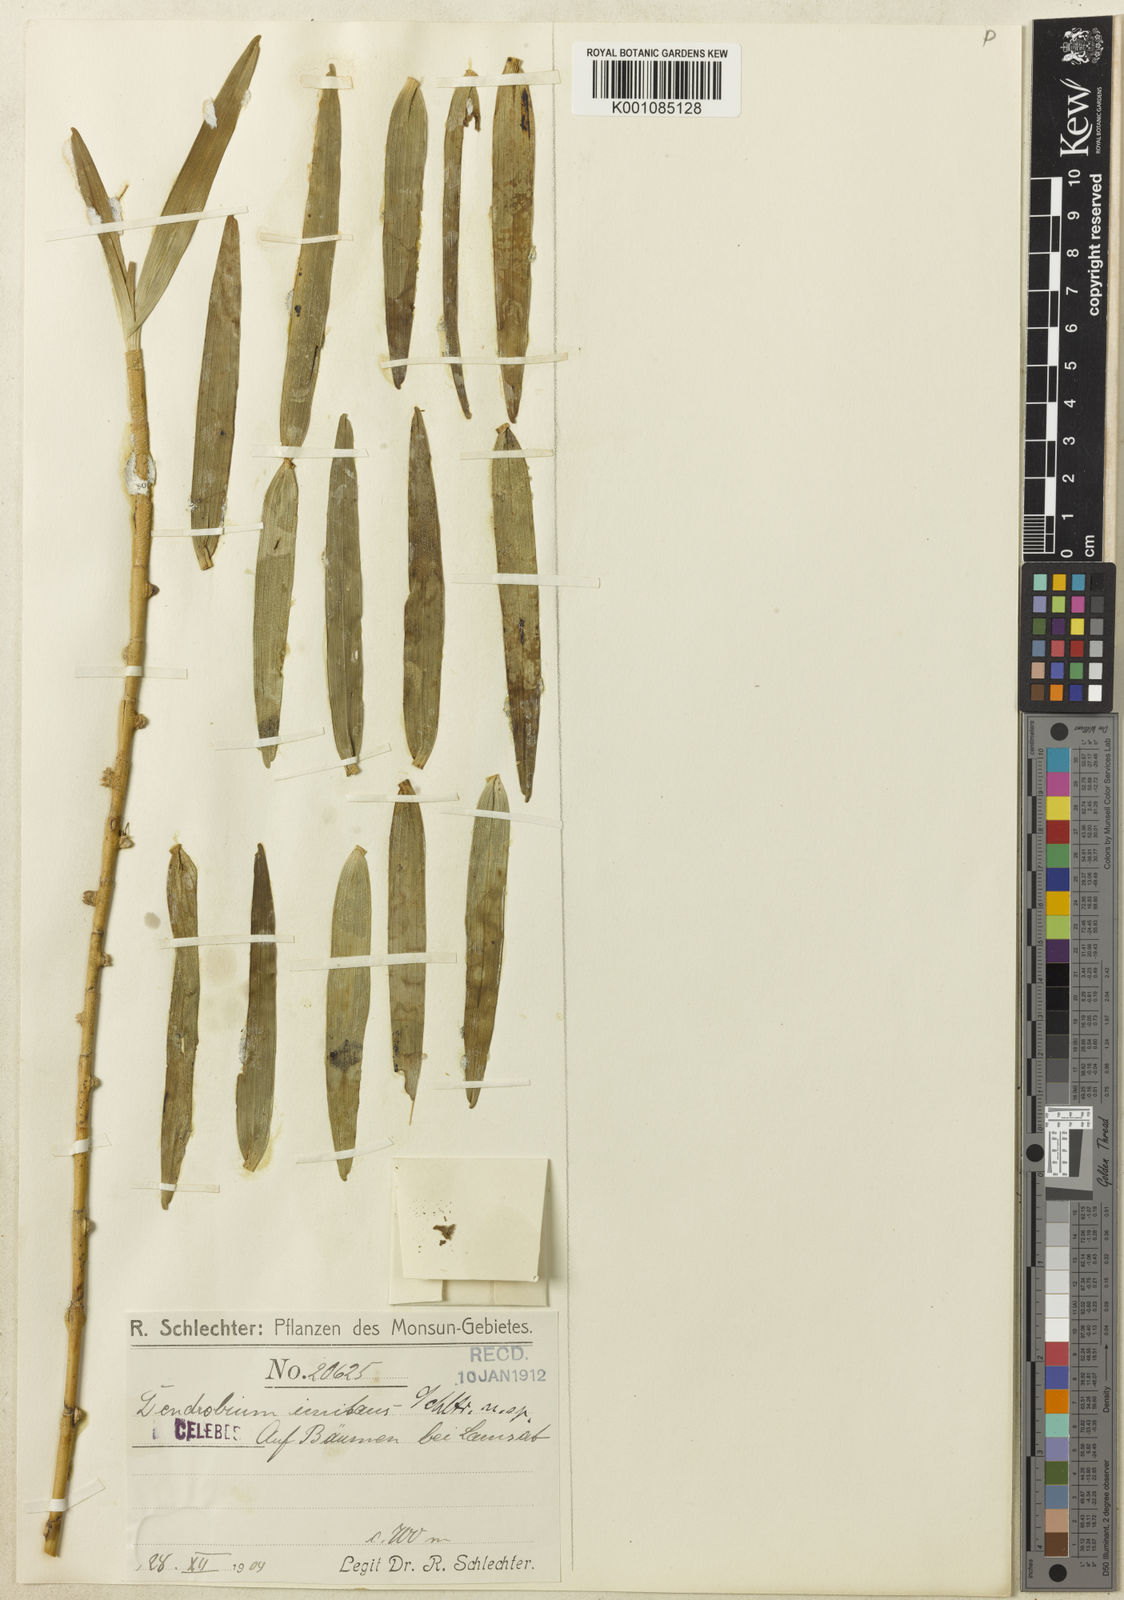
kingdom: Plantae
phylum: Tracheophyta
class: Liliopsida
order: Asparagales
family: Orchidaceae
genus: Dendrobium
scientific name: Dendrobium imitans
